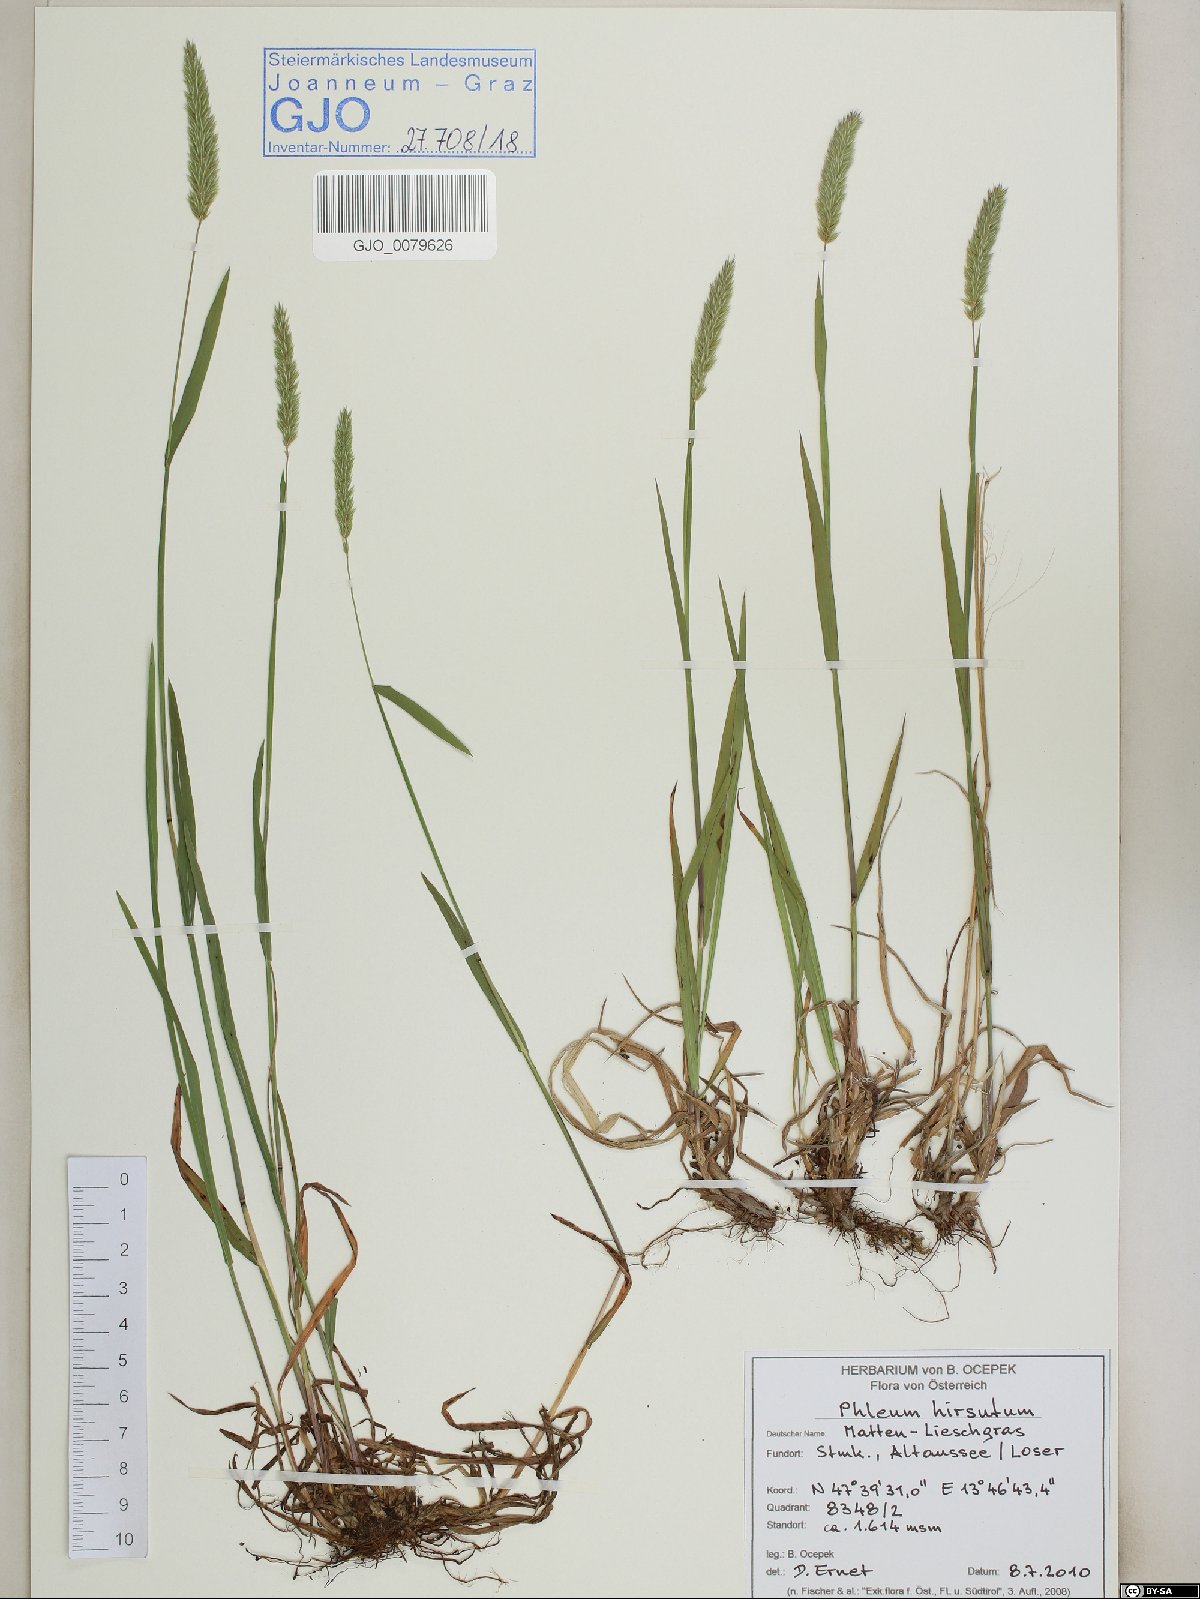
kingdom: Plantae
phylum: Tracheophyta
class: Liliopsida
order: Poales
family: Poaceae
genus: Phleum
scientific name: Phleum hirsutum
